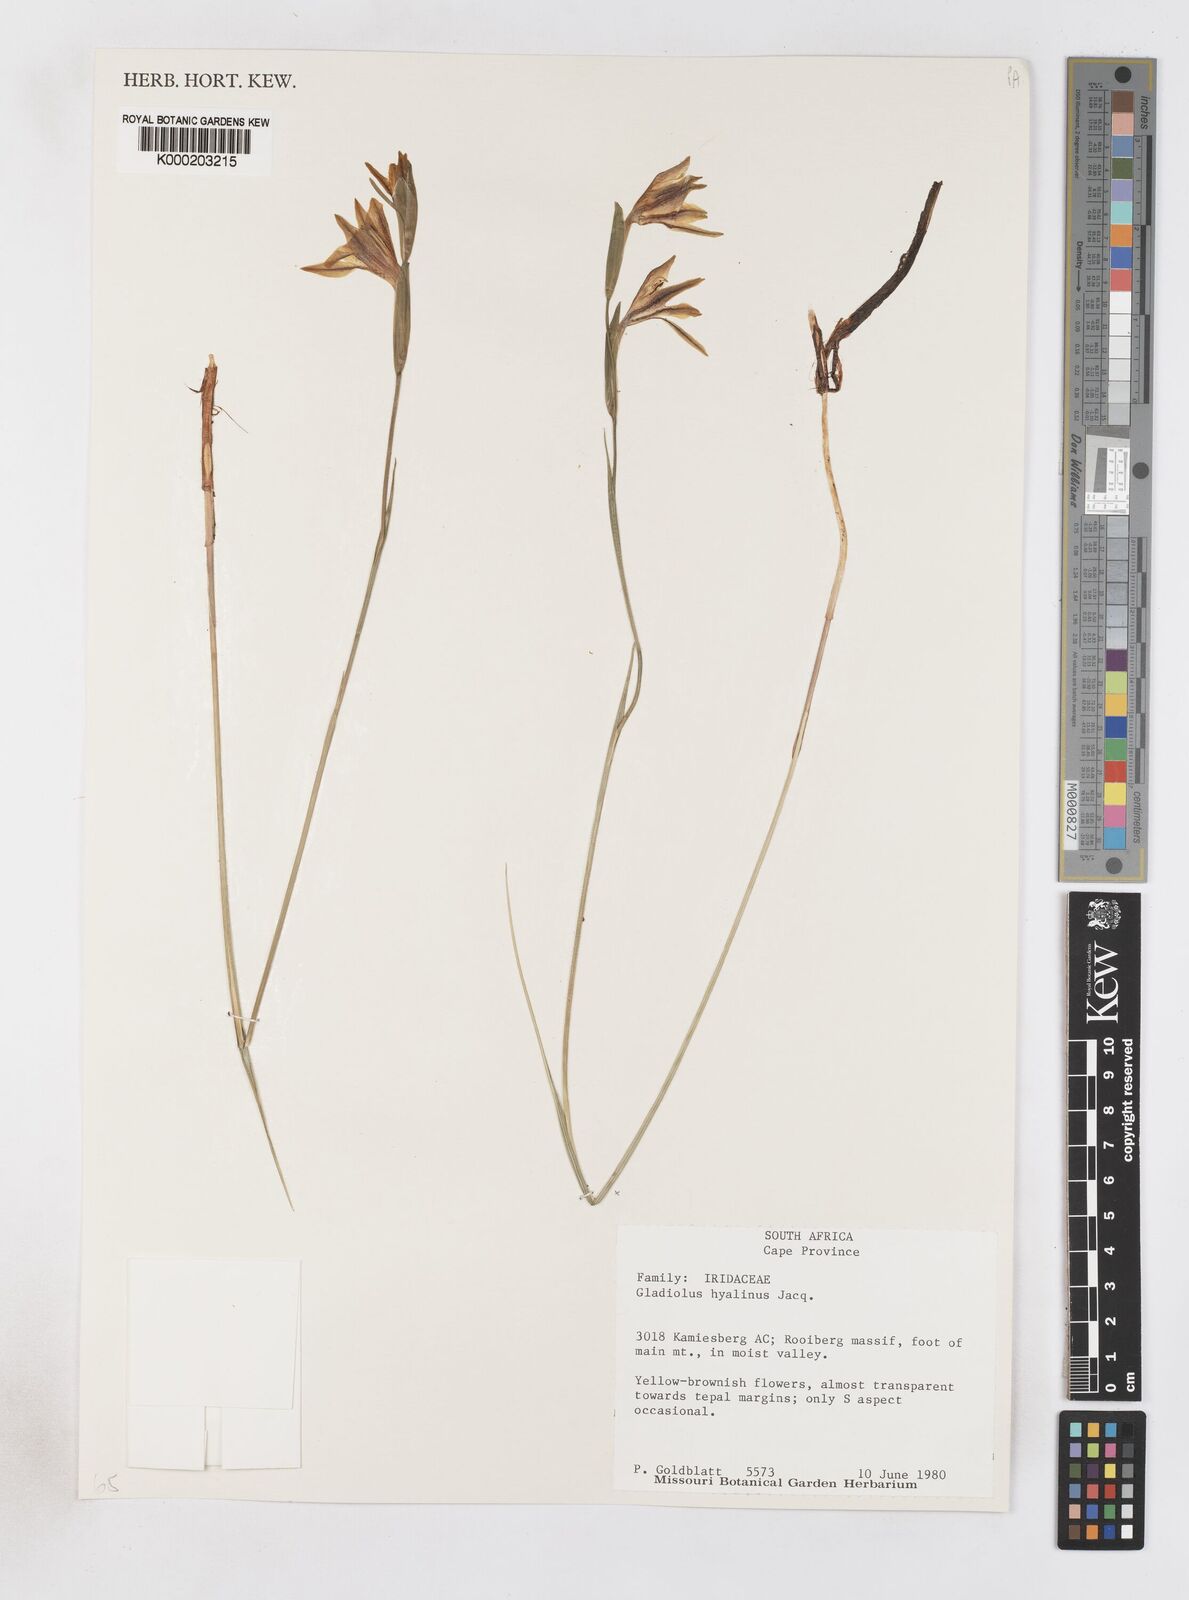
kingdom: Plantae
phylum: Tracheophyta
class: Liliopsida
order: Asparagales
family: Iridaceae
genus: Gladiolus
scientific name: Gladiolus hyalinus
